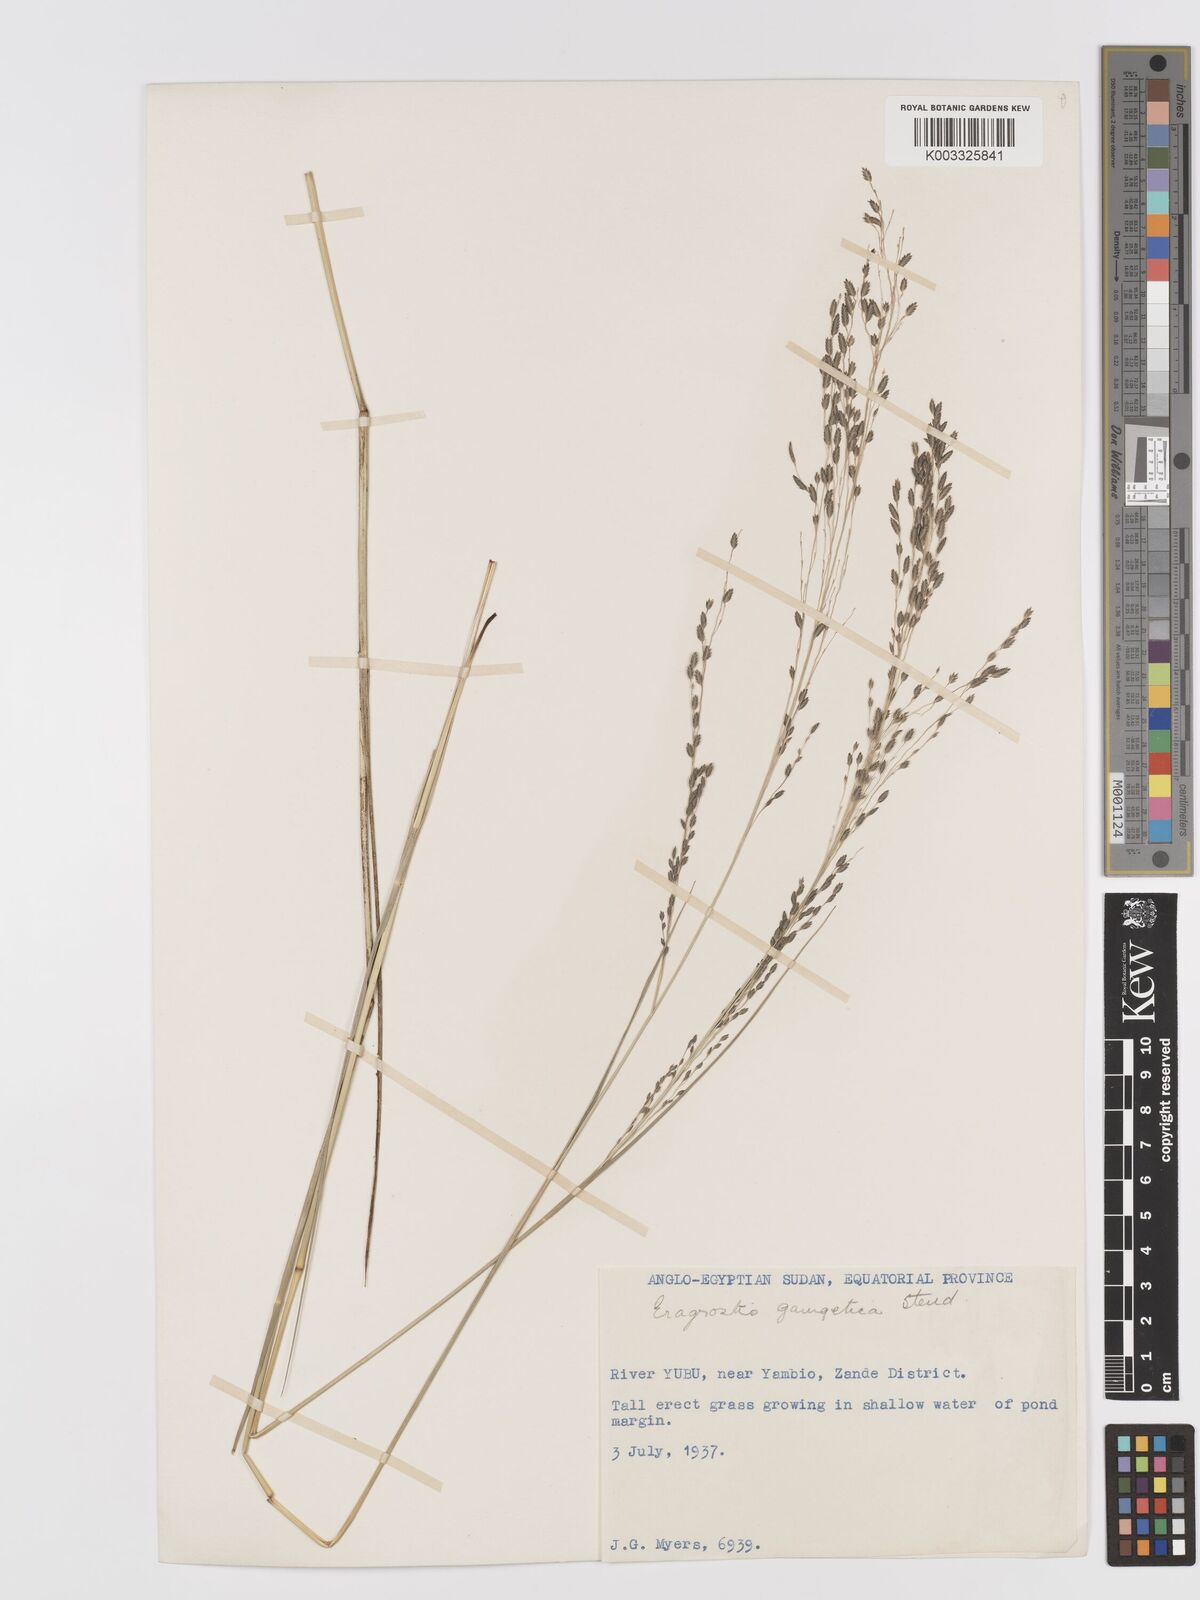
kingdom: Plantae
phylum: Tracheophyta
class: Liliopsida
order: Poales
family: Poaceae
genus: Eragrostis
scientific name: Eragrostis atrovirens
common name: Thalia lovegrass
